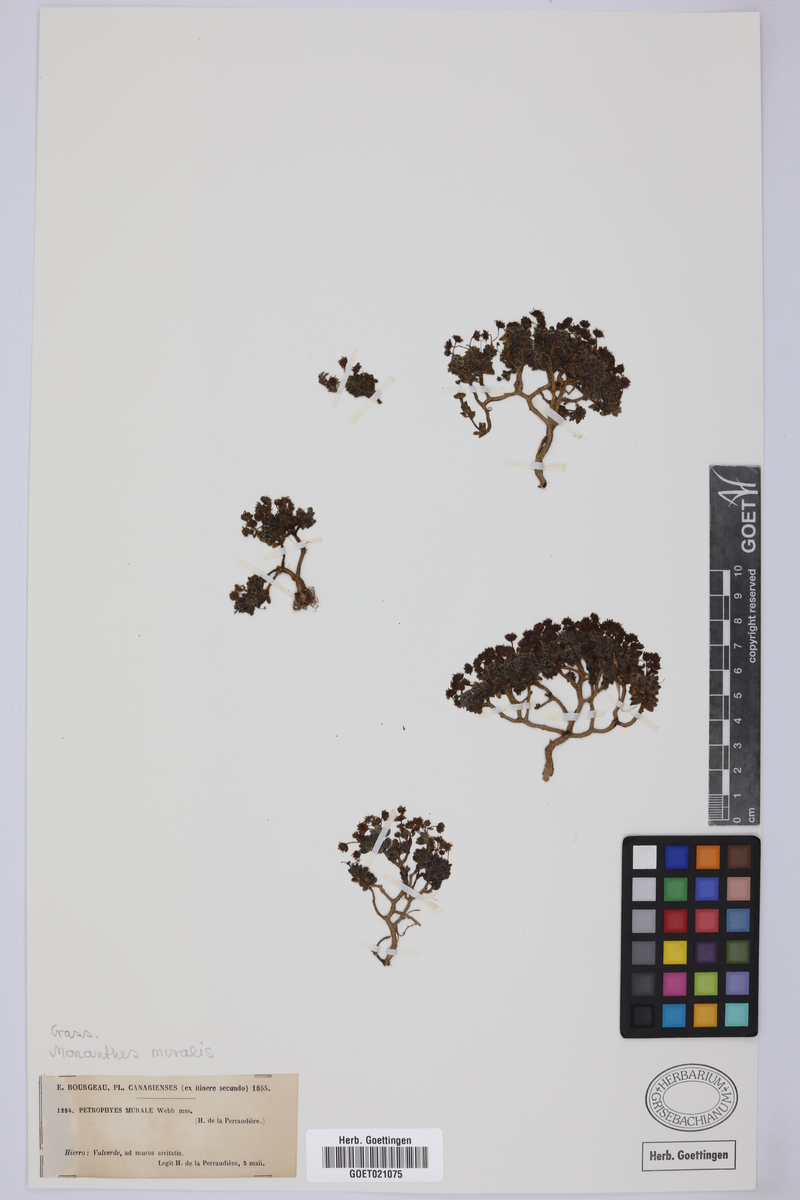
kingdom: Plantae
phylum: Tracheophyta
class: Magnoliopsida
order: Saxifragales
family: Crassulaceae
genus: Monanthes
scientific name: Monanthes muralis
